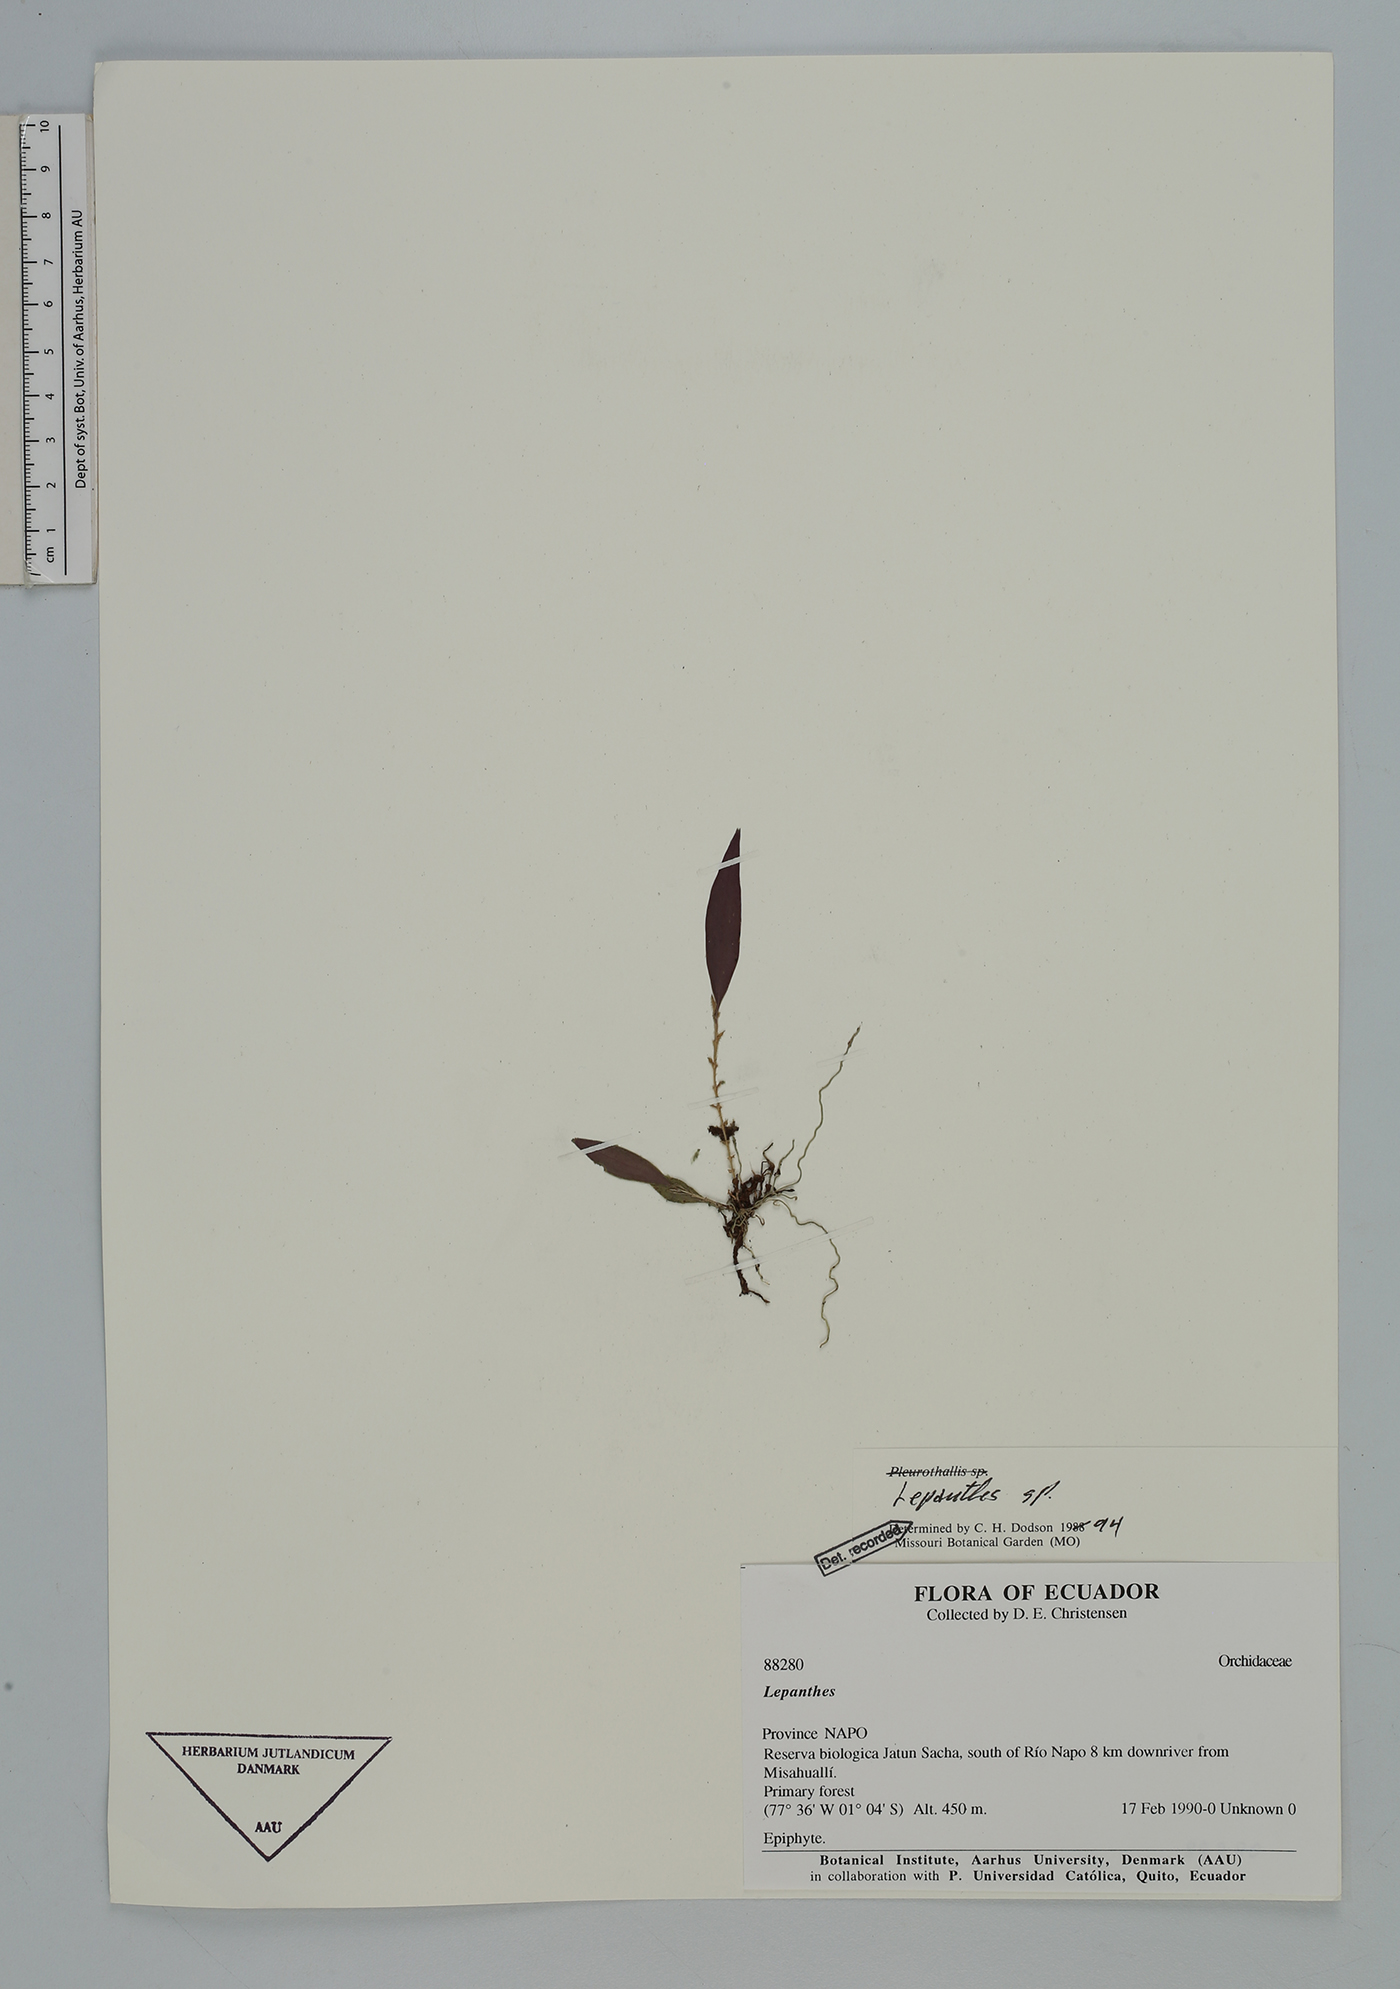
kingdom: Plantae
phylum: Tracheophyta
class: Liliopsida
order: Asparagales
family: Orchidaceae
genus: Lepanthes
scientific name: Lepanthes
